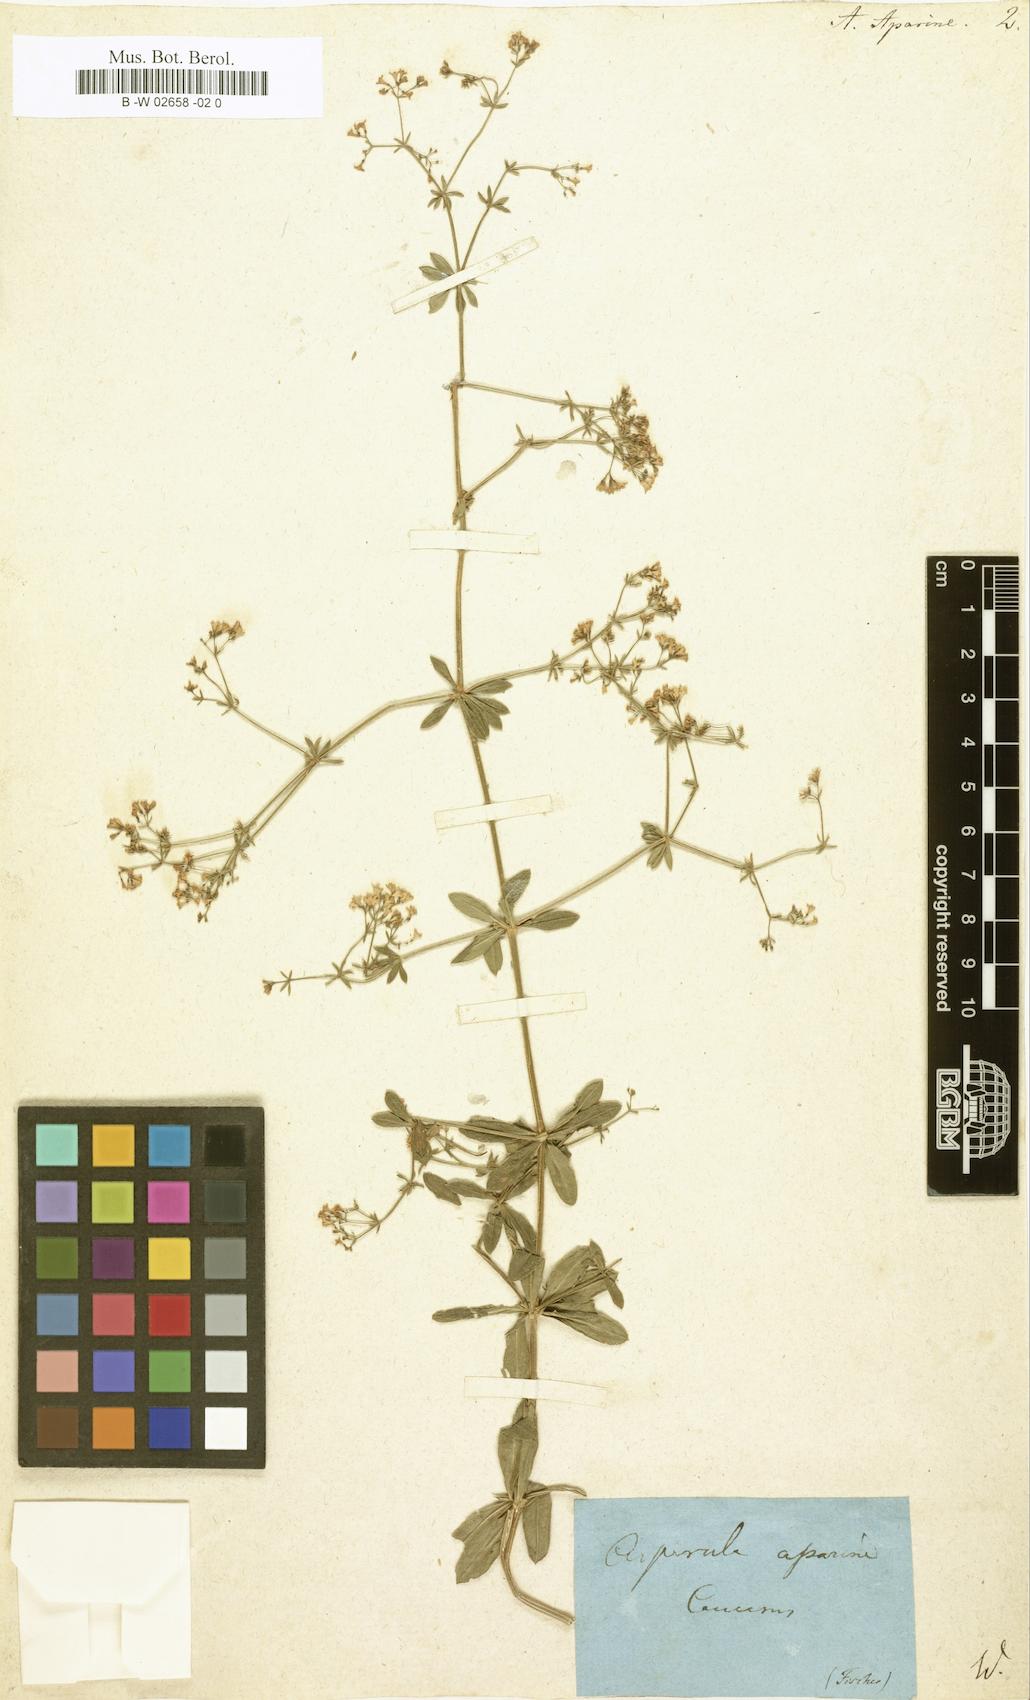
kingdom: Plantae
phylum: Tracheophyta
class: Magnoliopsida
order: Gentianales
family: Rubiaceae
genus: Galium
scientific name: Galium pseudorivale
